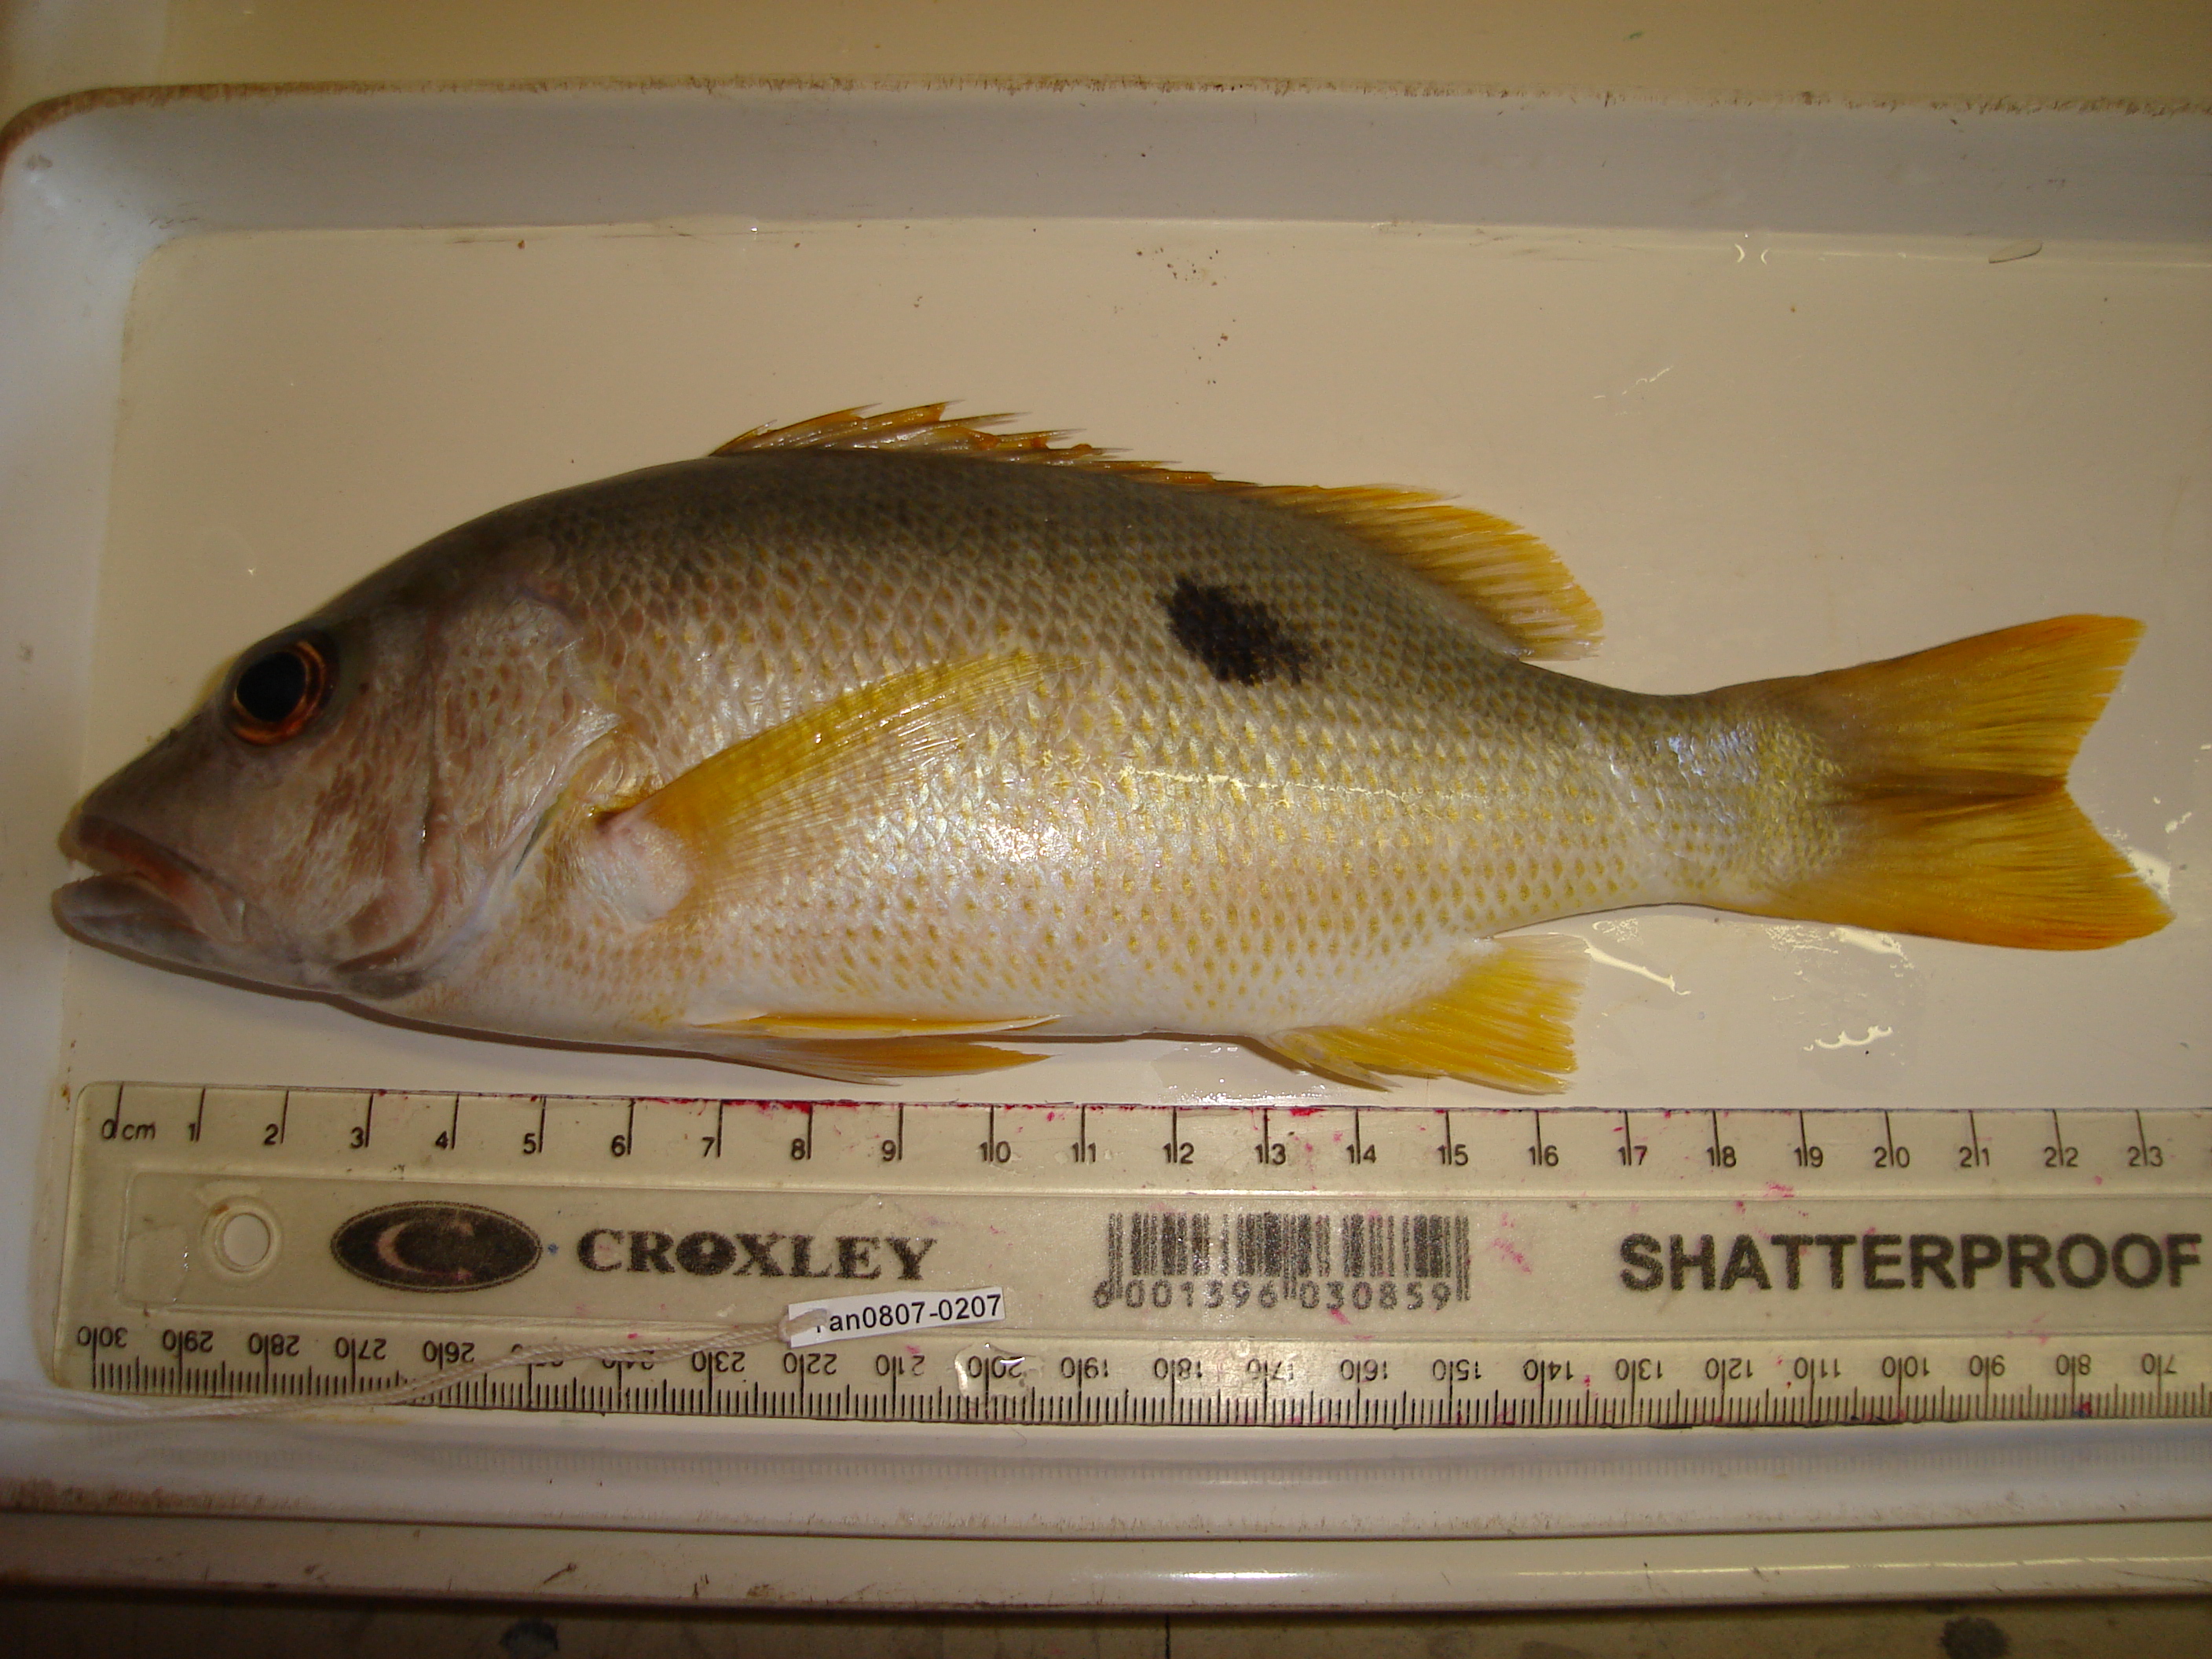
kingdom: Animalia
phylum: Chordata
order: Perciformes
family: Lutjanidae
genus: Lutjanus
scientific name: Lutjanus monostigma
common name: Onespot snapper
